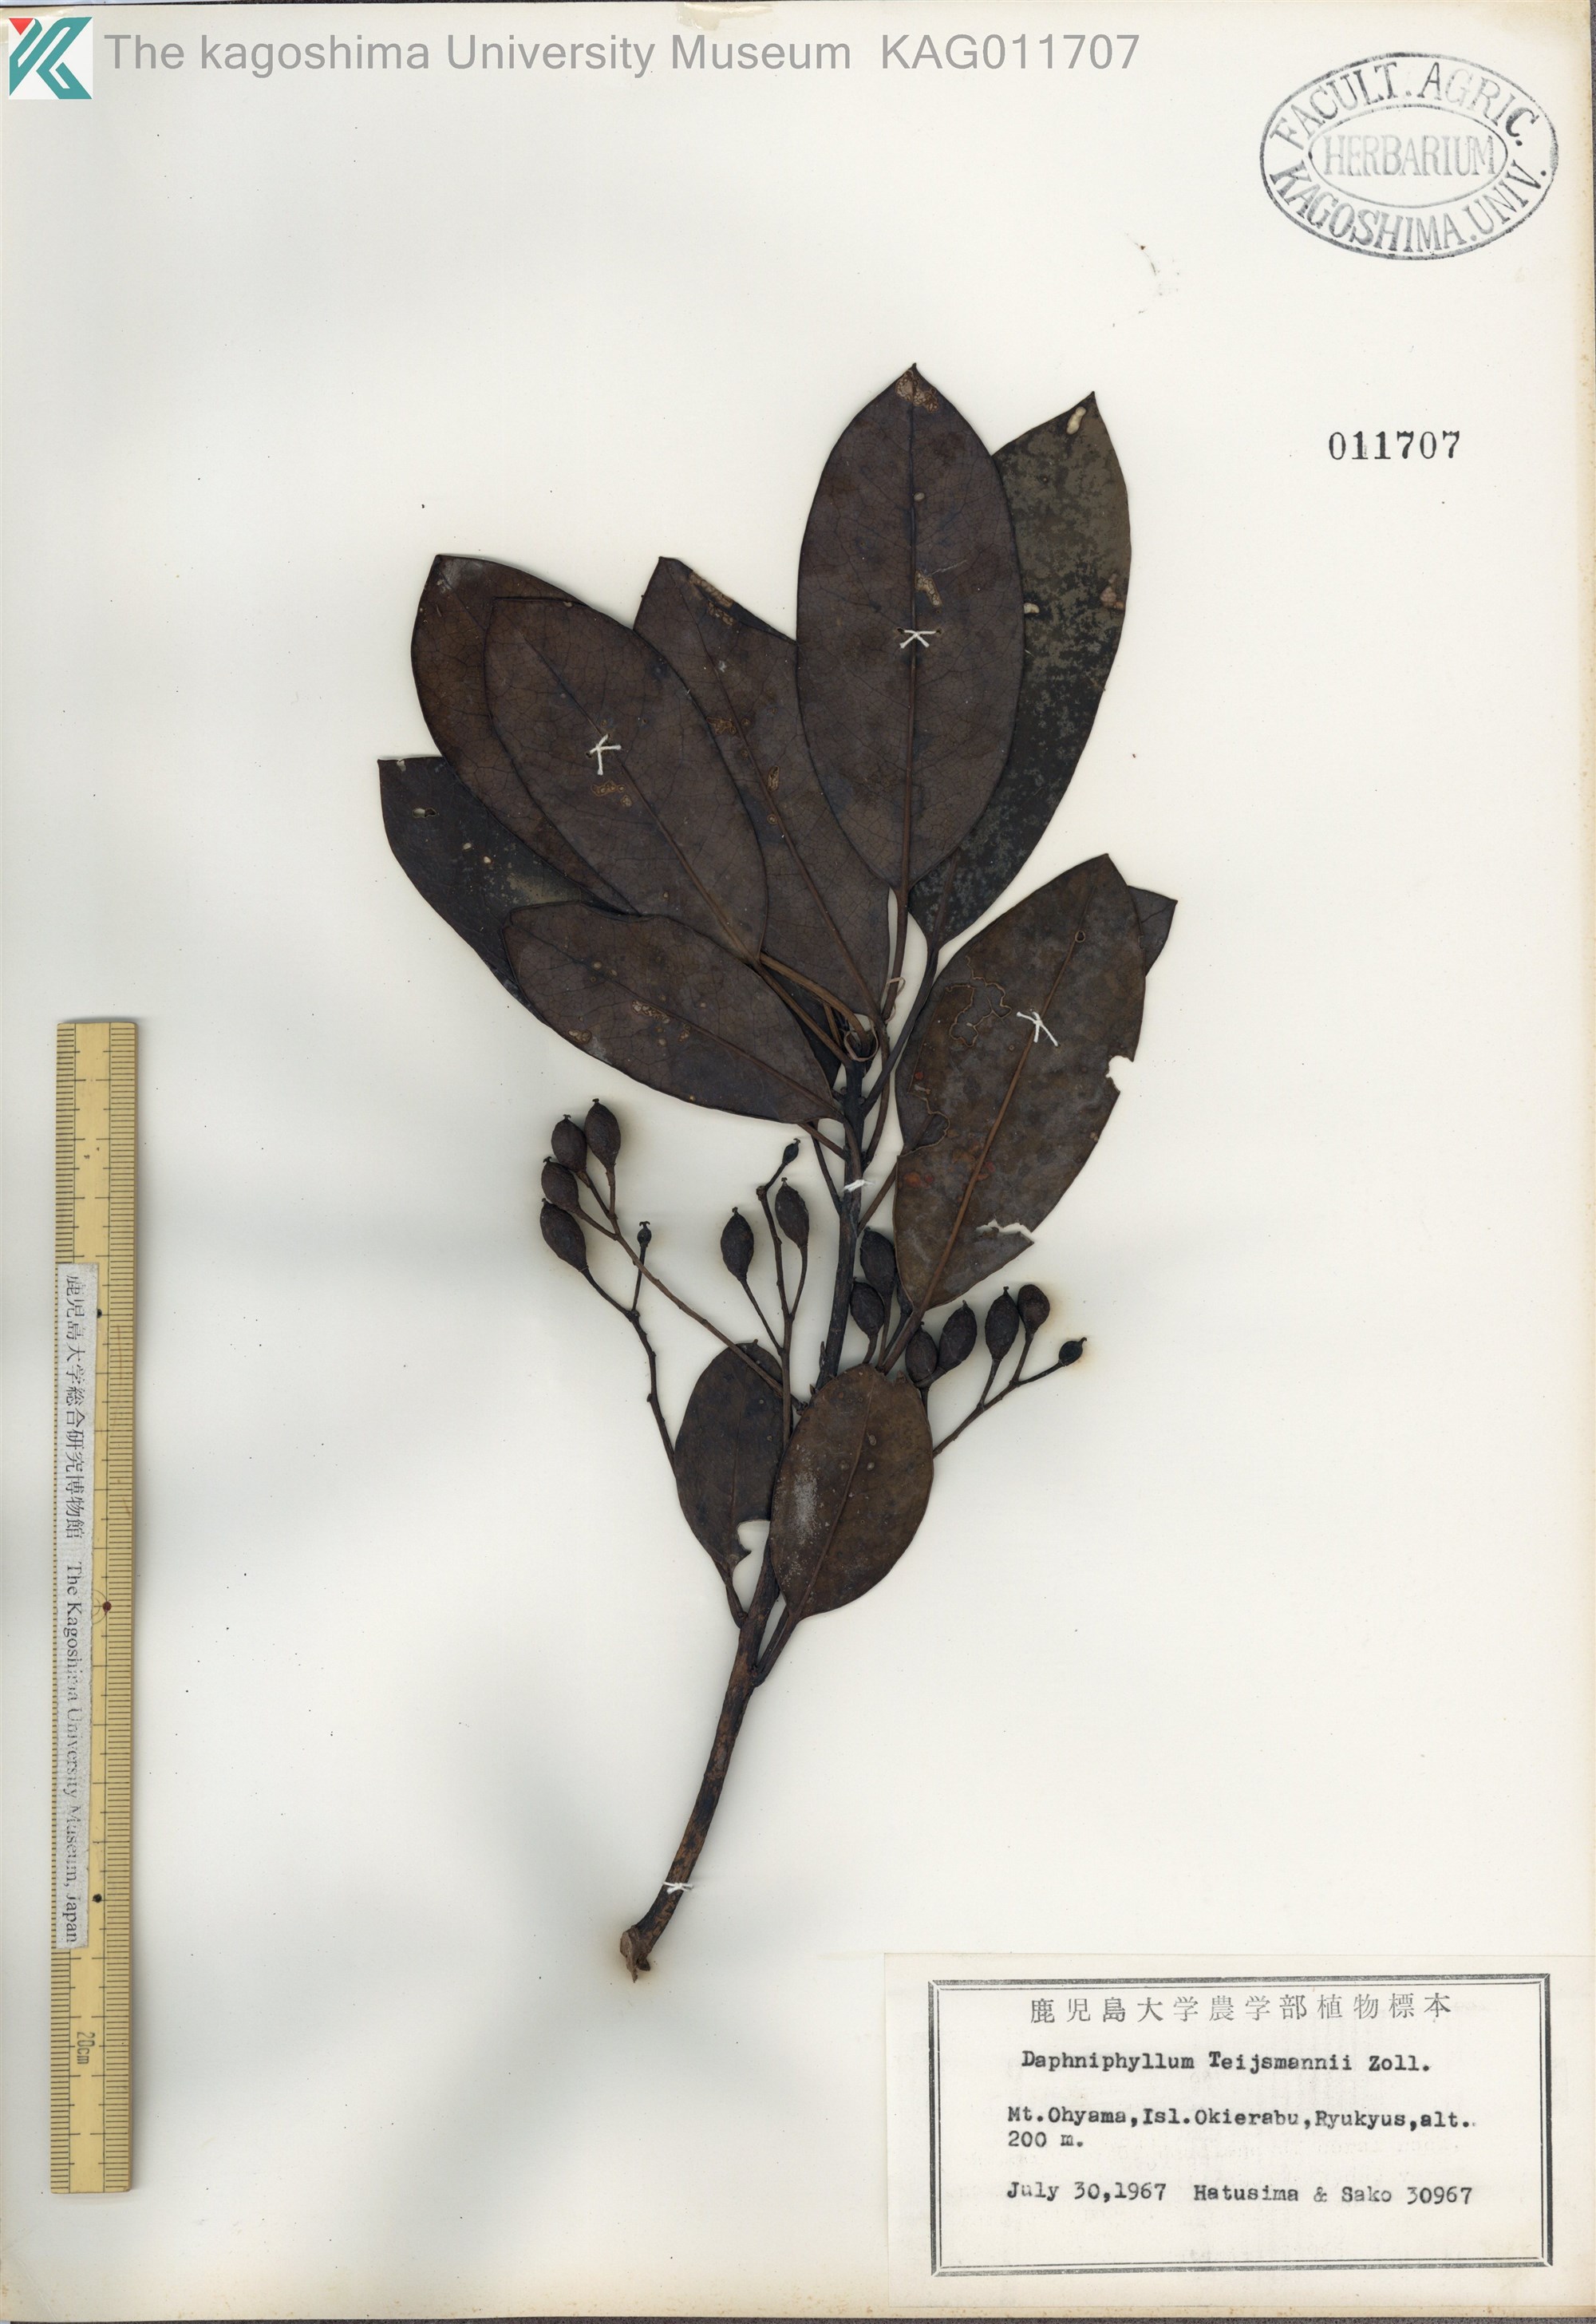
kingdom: Plantae
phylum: Tracheophyta
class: Magnoliopsida
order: Saxifragales
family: Daphniphyllaceae
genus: Daphniphyllum
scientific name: Daphniphyllum teijsmannii
